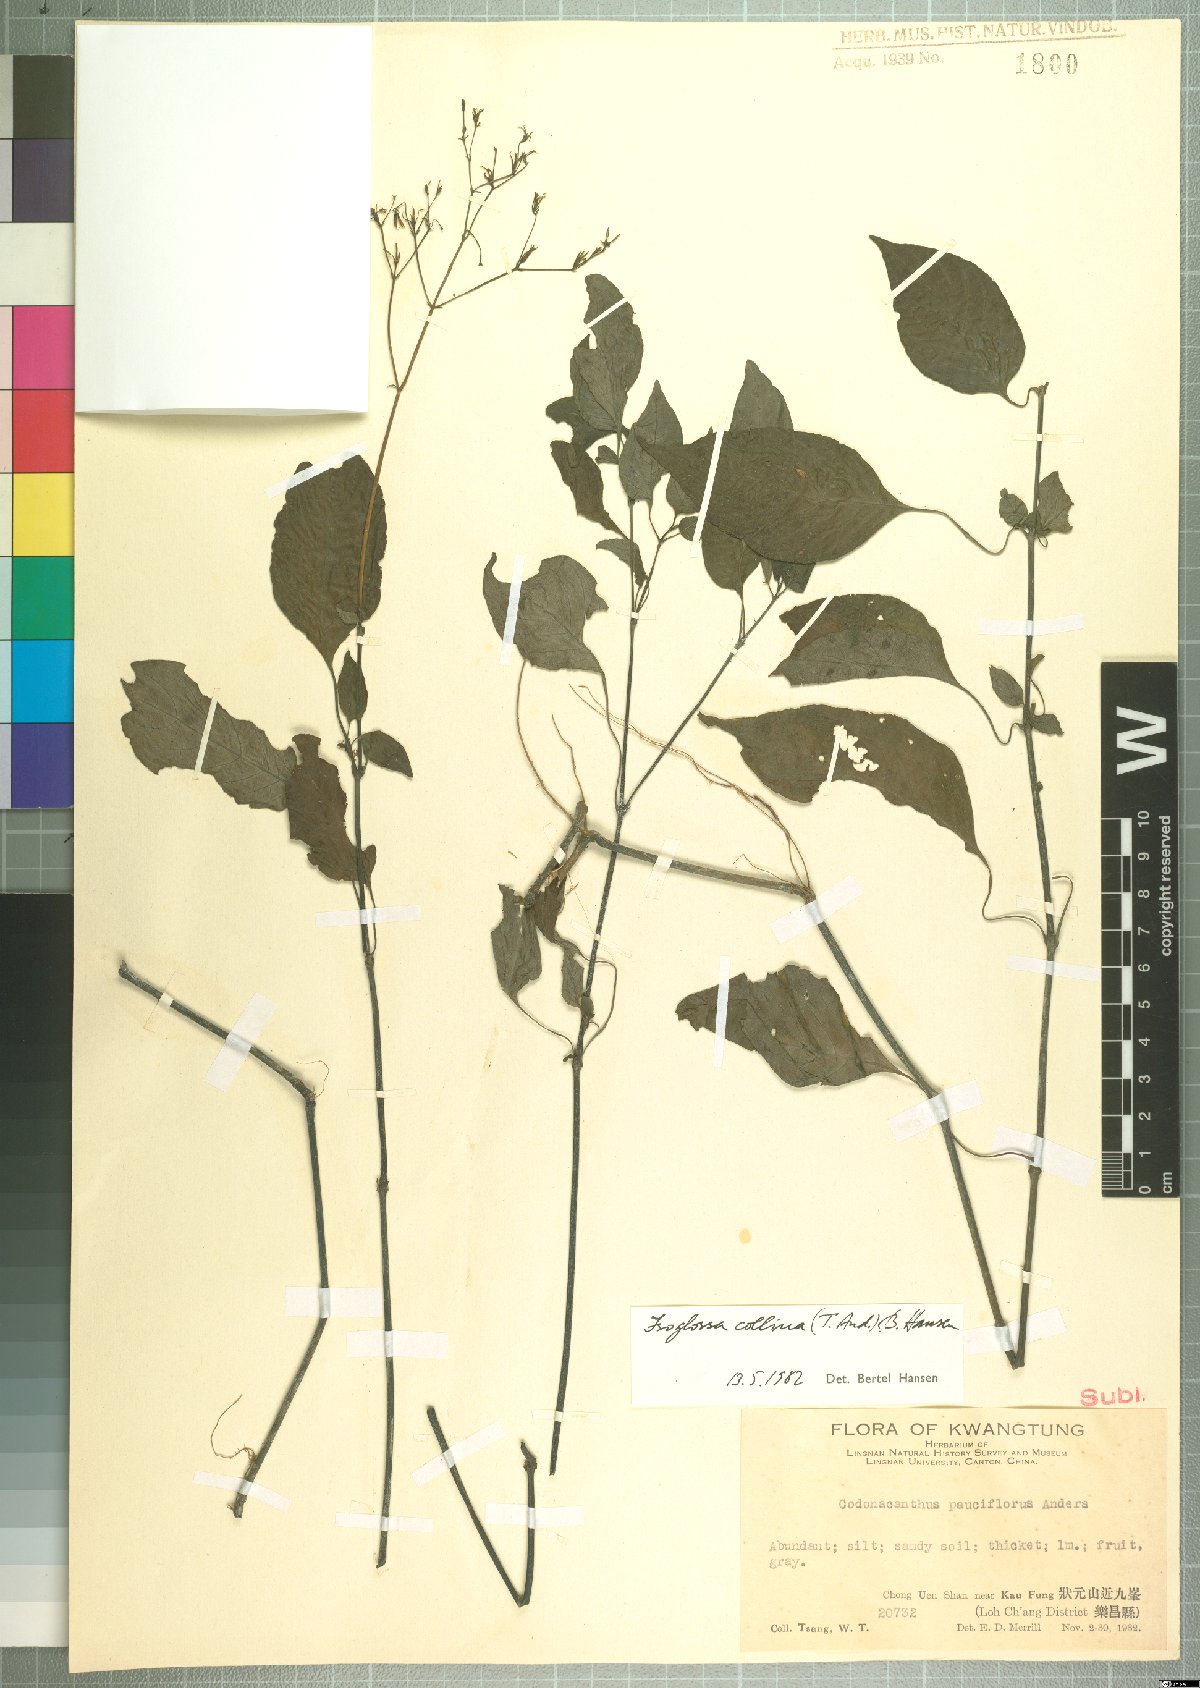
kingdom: Plantae
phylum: Tracheophyta
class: Magnoliopsida
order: Lamiales
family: Acanthaceae
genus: Isoglossa
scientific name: Isoglossa collina
